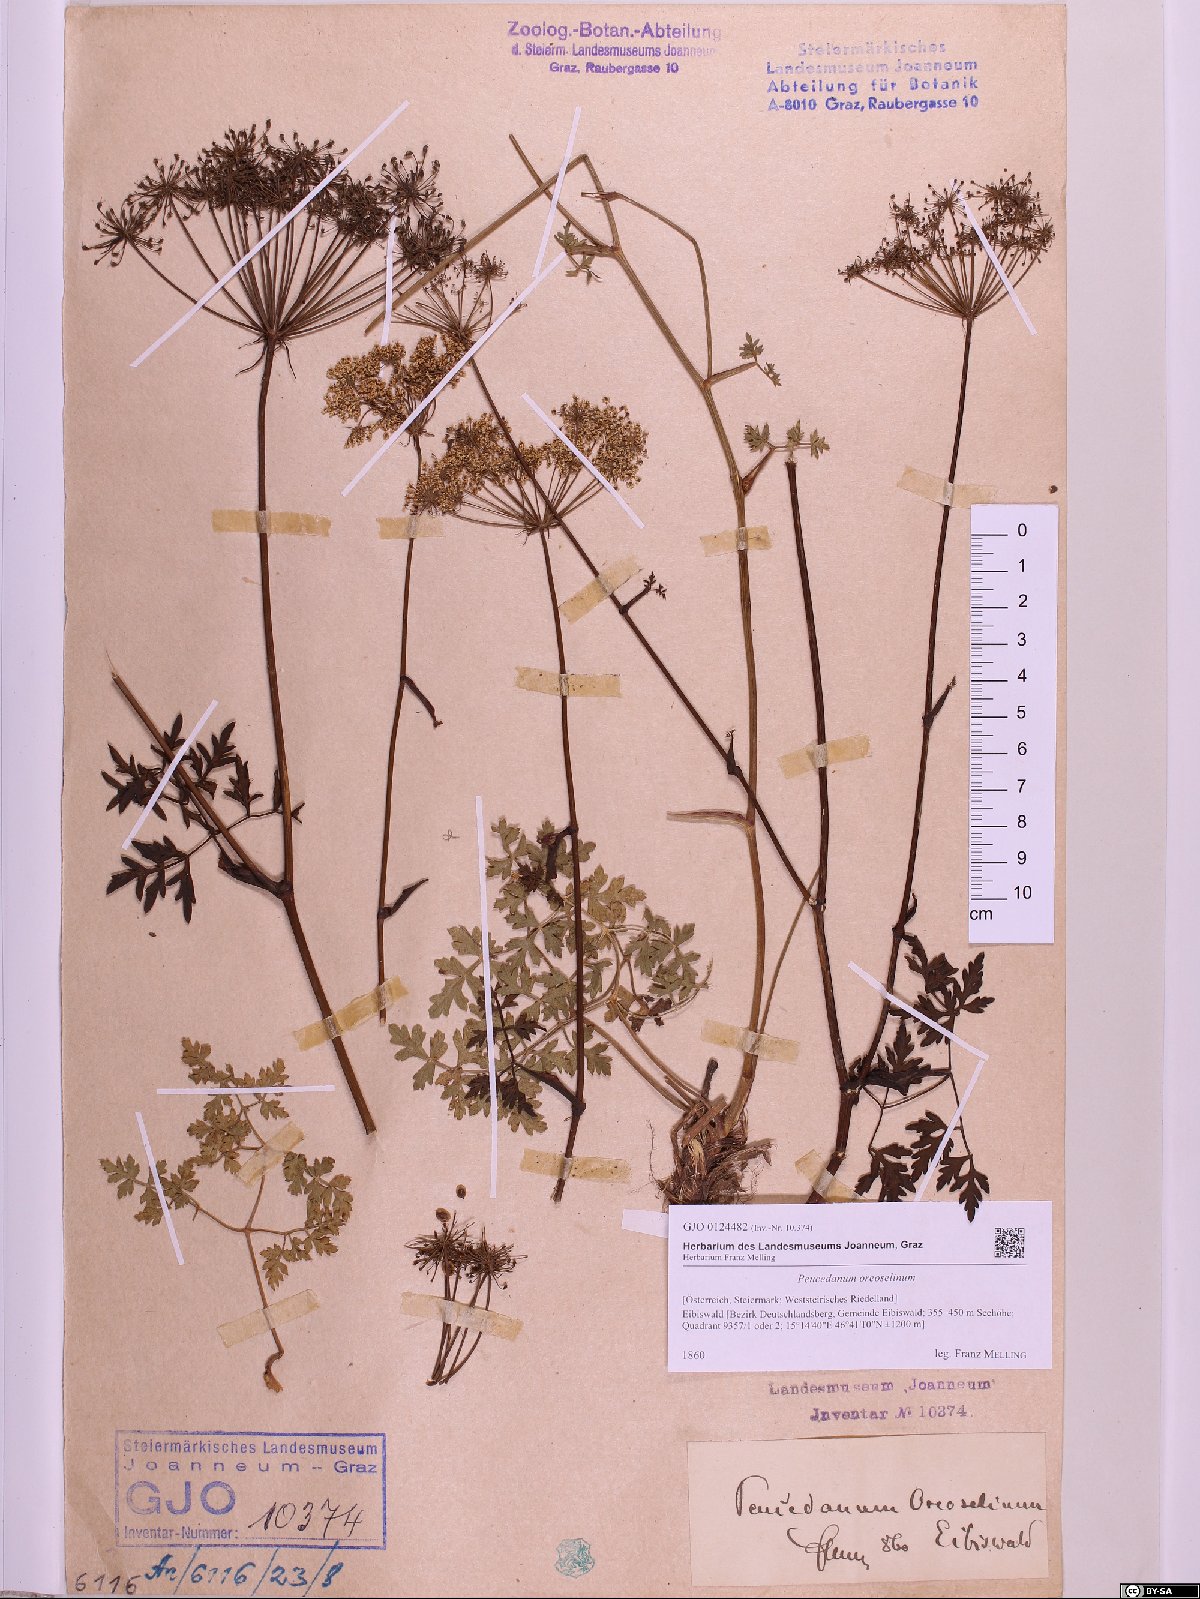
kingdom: Plantae
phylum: Tracheophyta
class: Magnoliopsida
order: Apiales
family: Apiaceae
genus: Oreoselinum
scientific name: Oreoselinum nigrum
